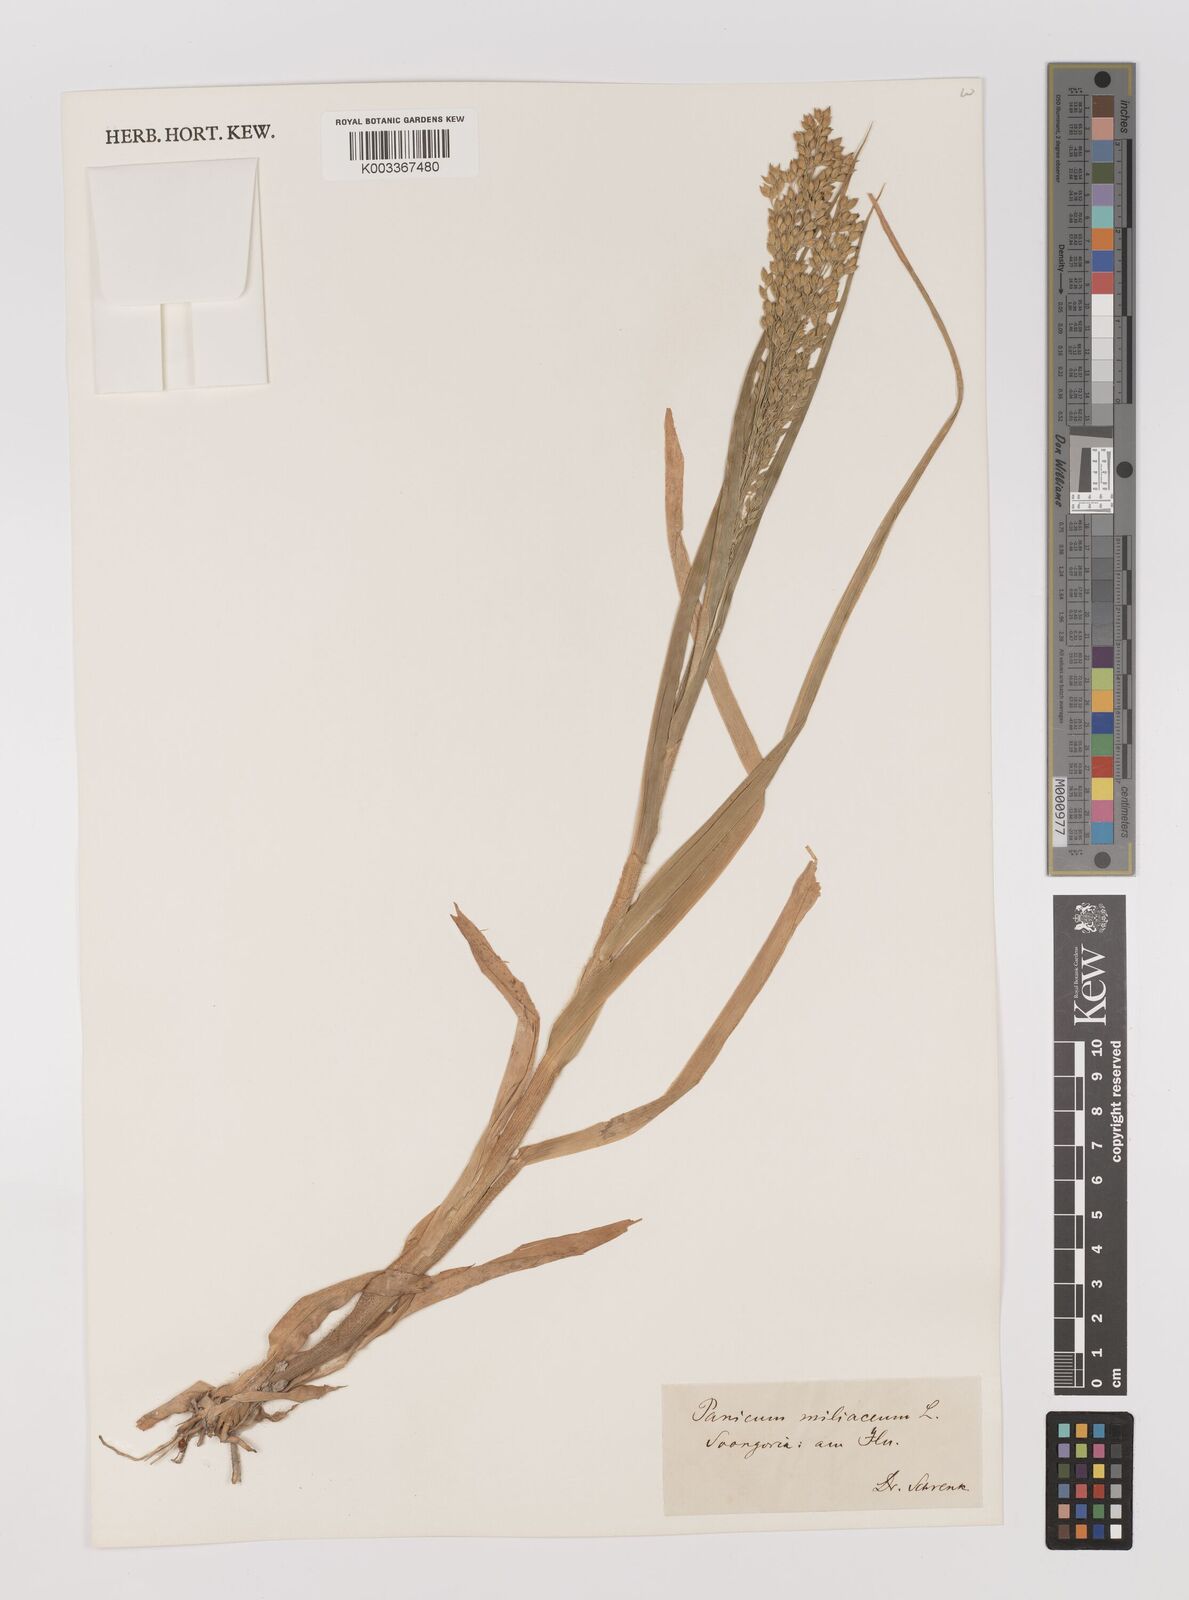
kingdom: Plantae
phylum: Tracheophyta
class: Liliopsida
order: Poales
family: Poaceae
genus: Panicum
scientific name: Panicum miliaceum
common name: Common millet
